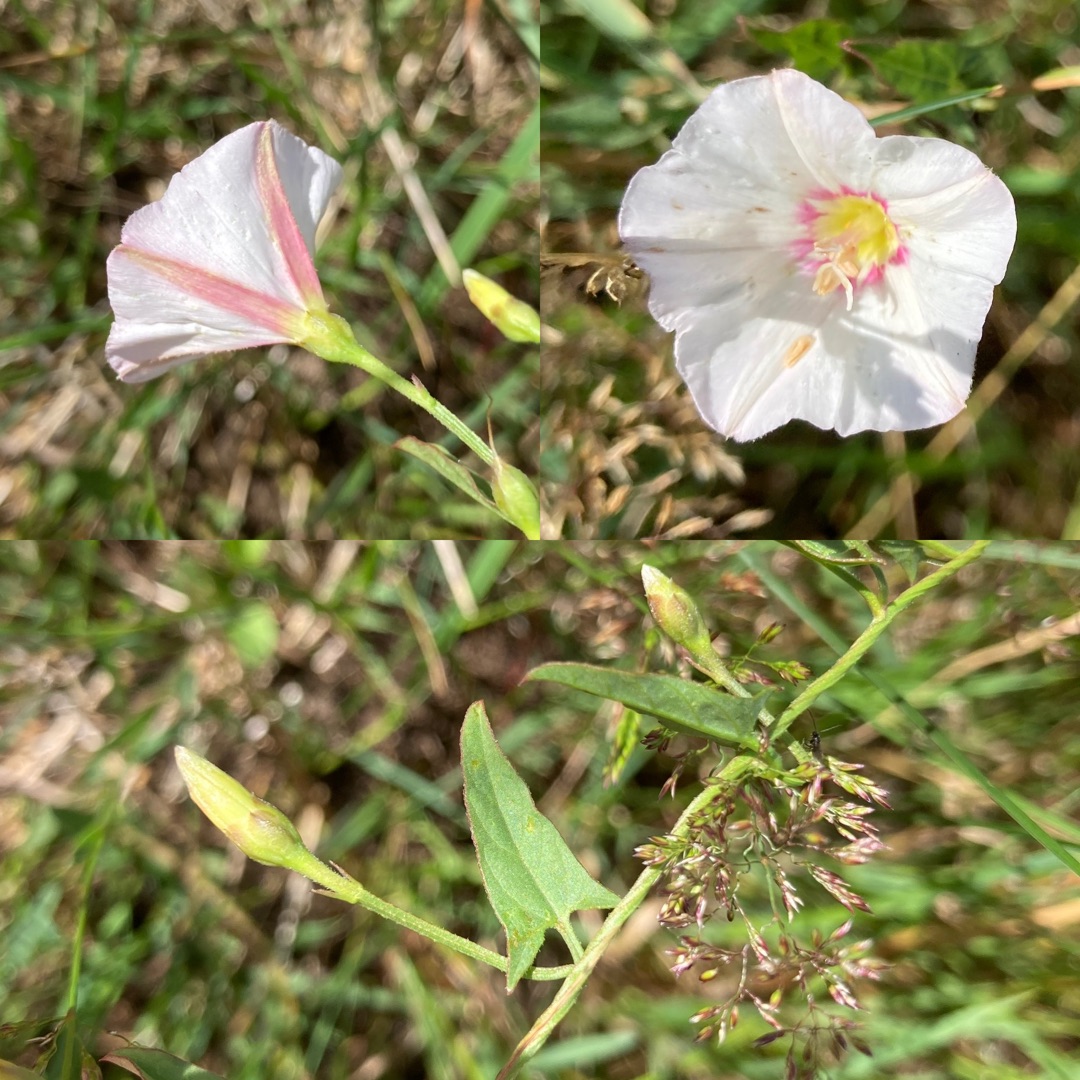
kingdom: Plantae
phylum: Tracheophyta
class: Magnoliopsida
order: Solanales
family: Convolvulaceae
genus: Convolvulus
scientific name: Convolvulus arvensis
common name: Ager-snerle
